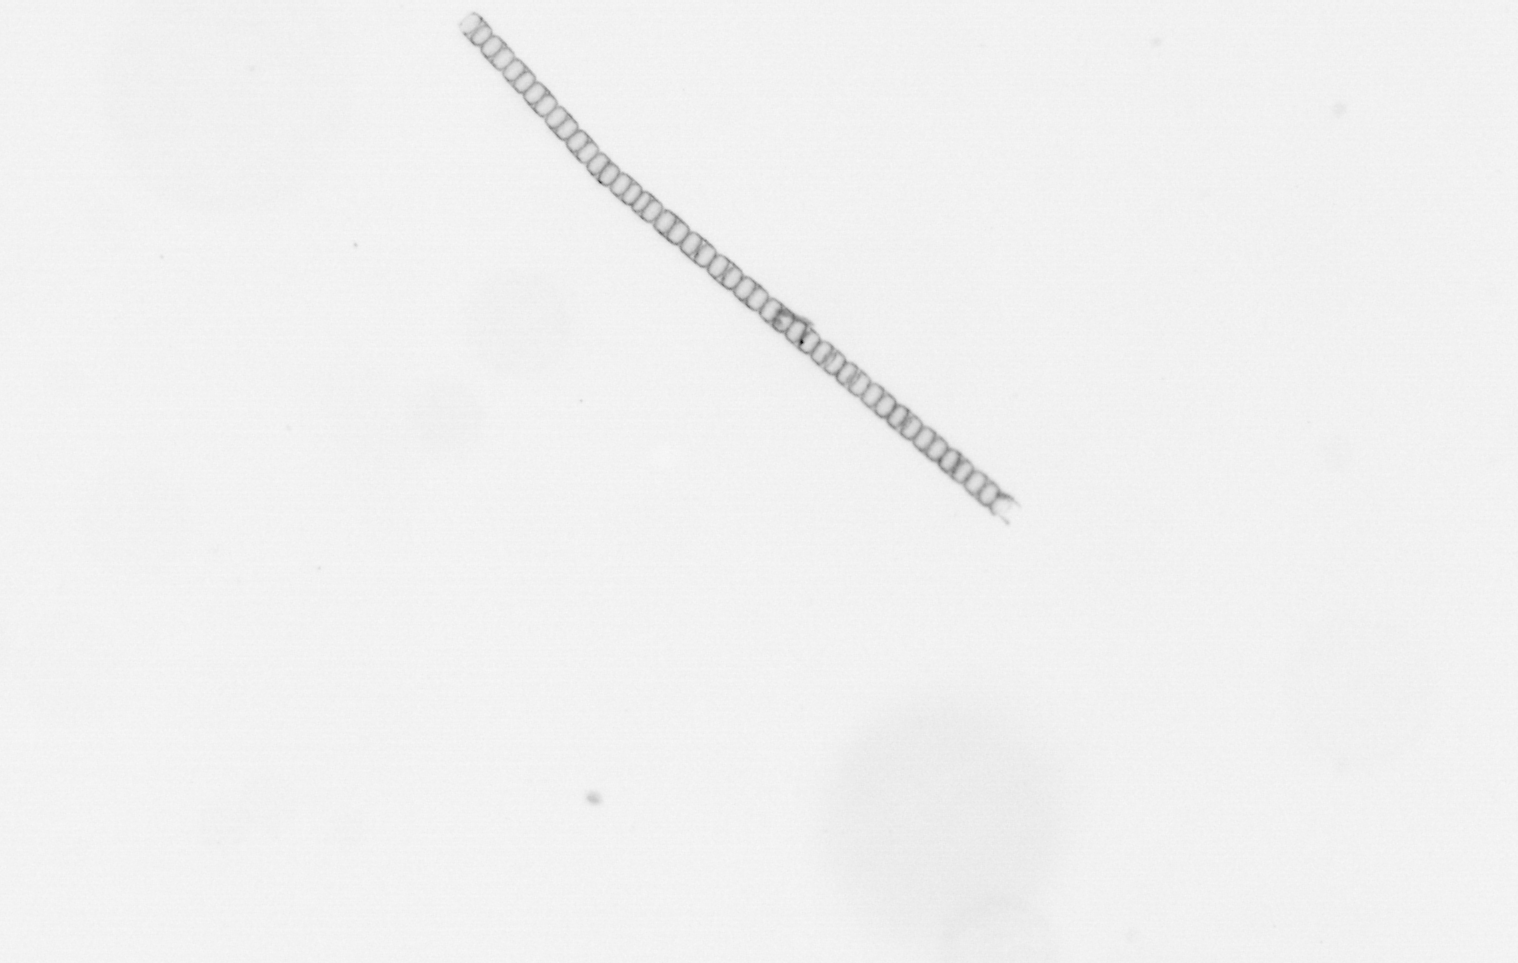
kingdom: Chromista
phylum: Ochrophyta
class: Bacillariophyceae
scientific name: Bacillariophyceae
